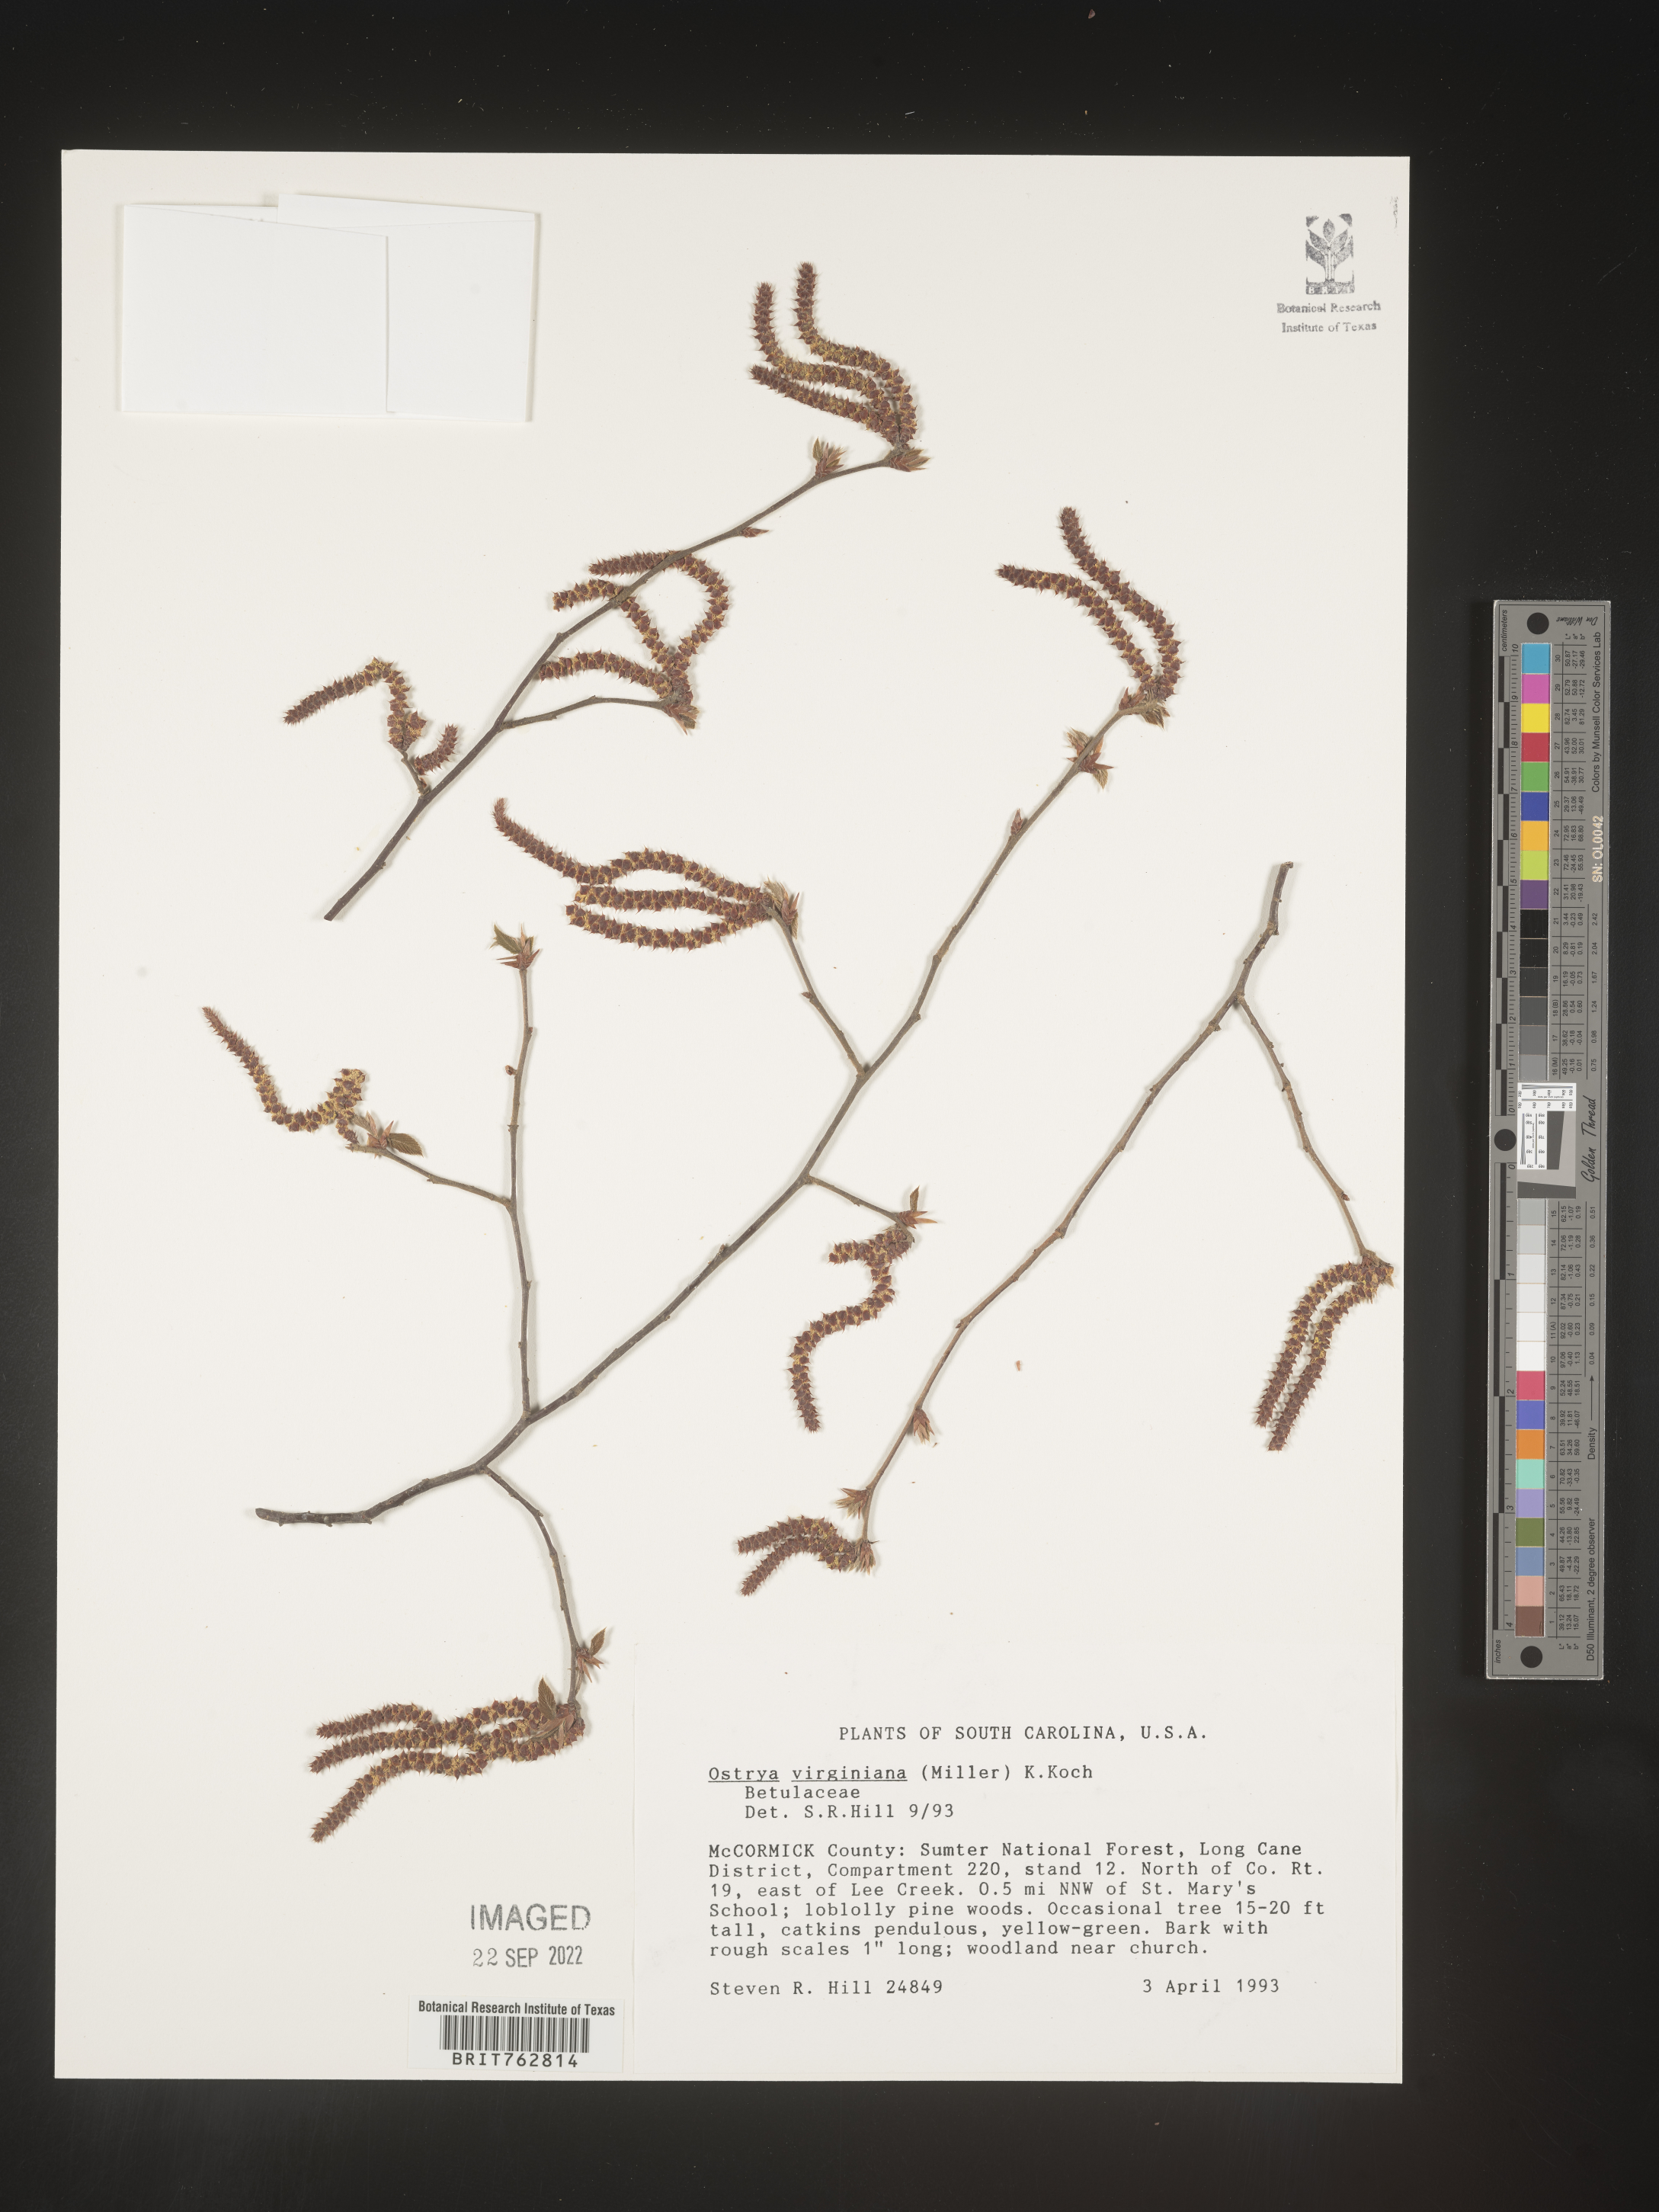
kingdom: Plantae
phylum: Tracheophyta
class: Magnoliopsida
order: Fagales
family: Betulaceae
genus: Ostrya
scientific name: Ostrya virginiana
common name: Ironwood
